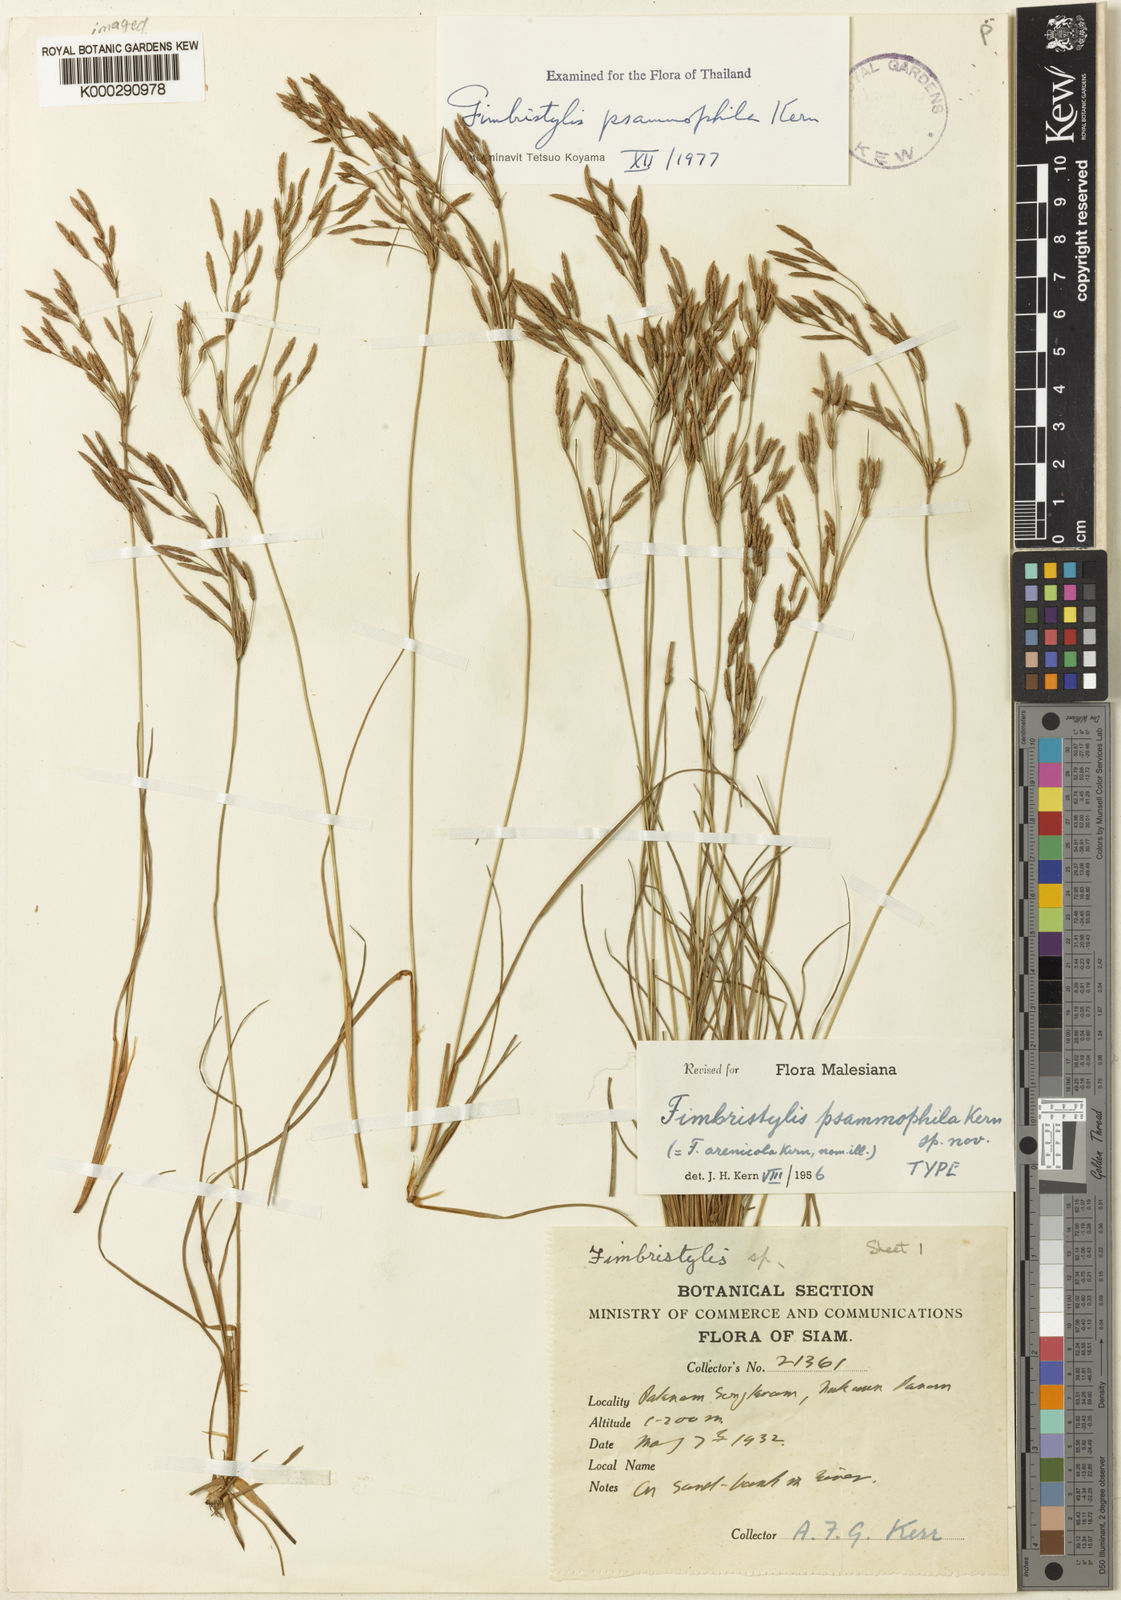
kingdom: Plantae
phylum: Tracheophyta
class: Liliopsida
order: Poales
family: Cyperaceae
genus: Fimbristylis
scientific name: Fimbristylis psammophila
